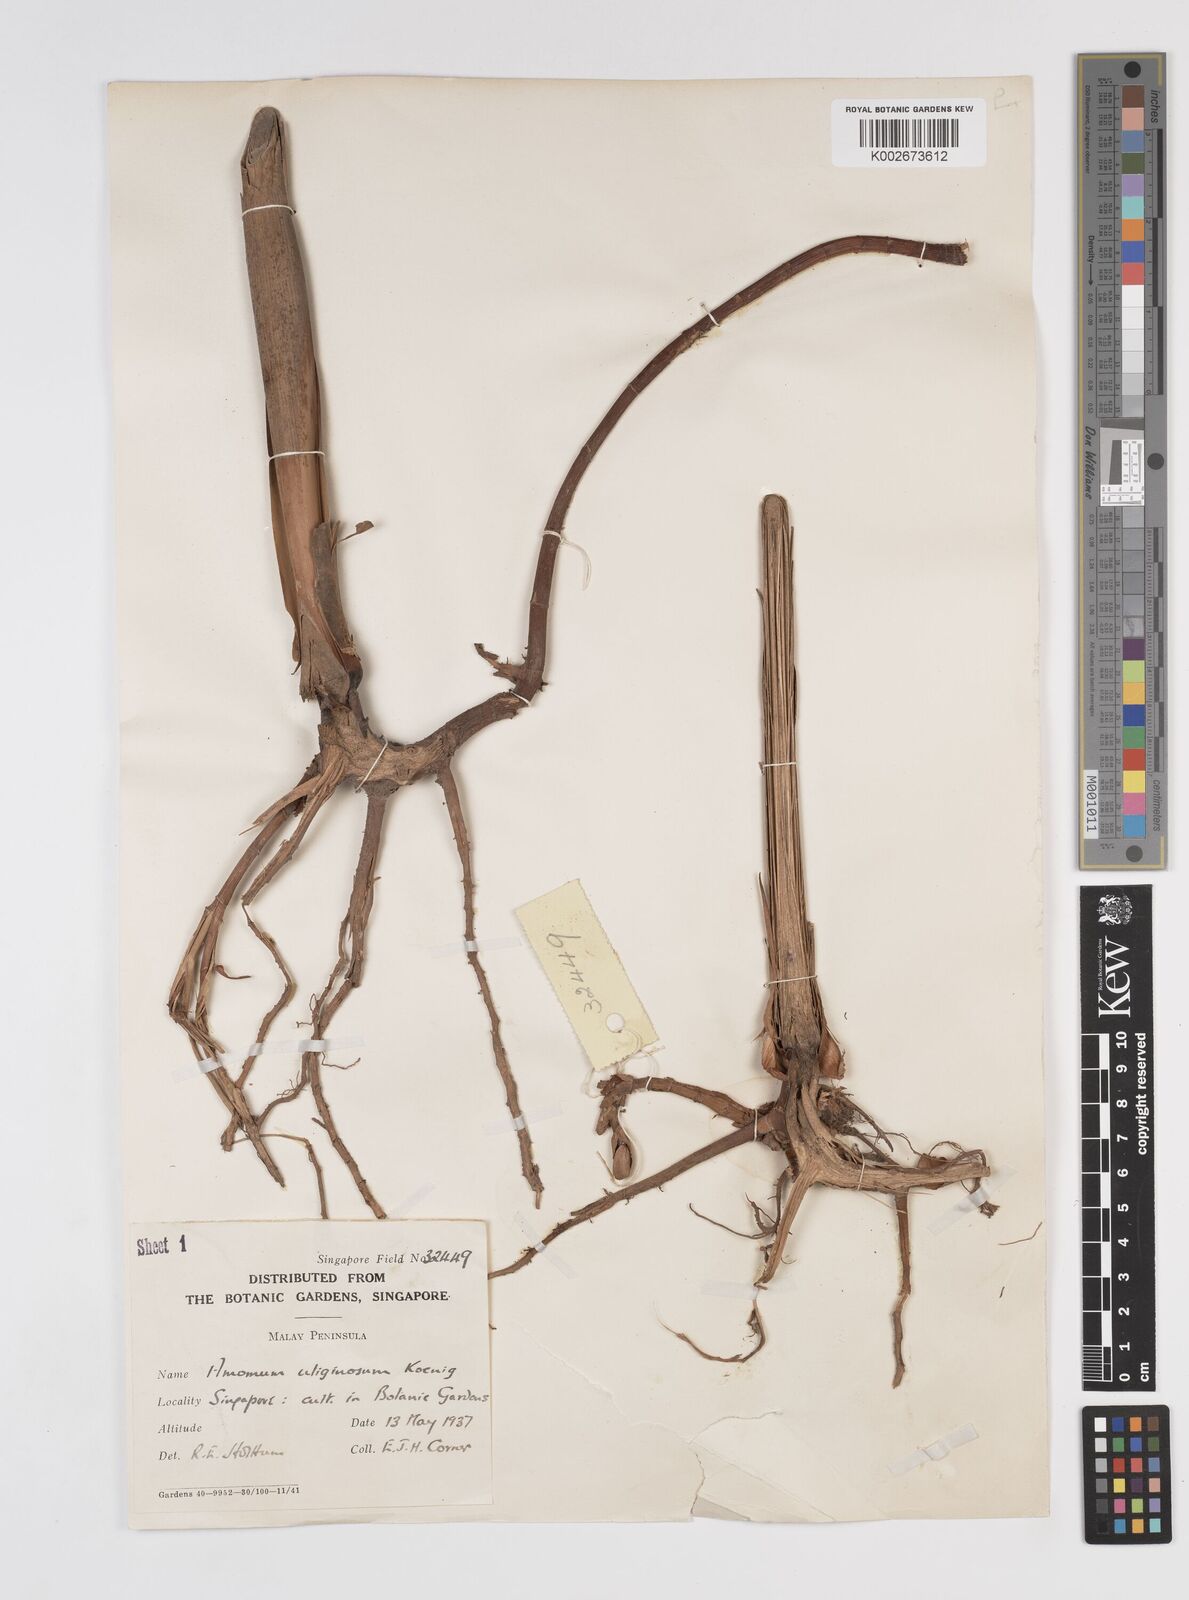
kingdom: Plantae
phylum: Tracheophyta
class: Liliopsida
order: Zingiberales
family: Zingiberaceae
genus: Wurfbainia
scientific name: Wurfbainia uliginosa
